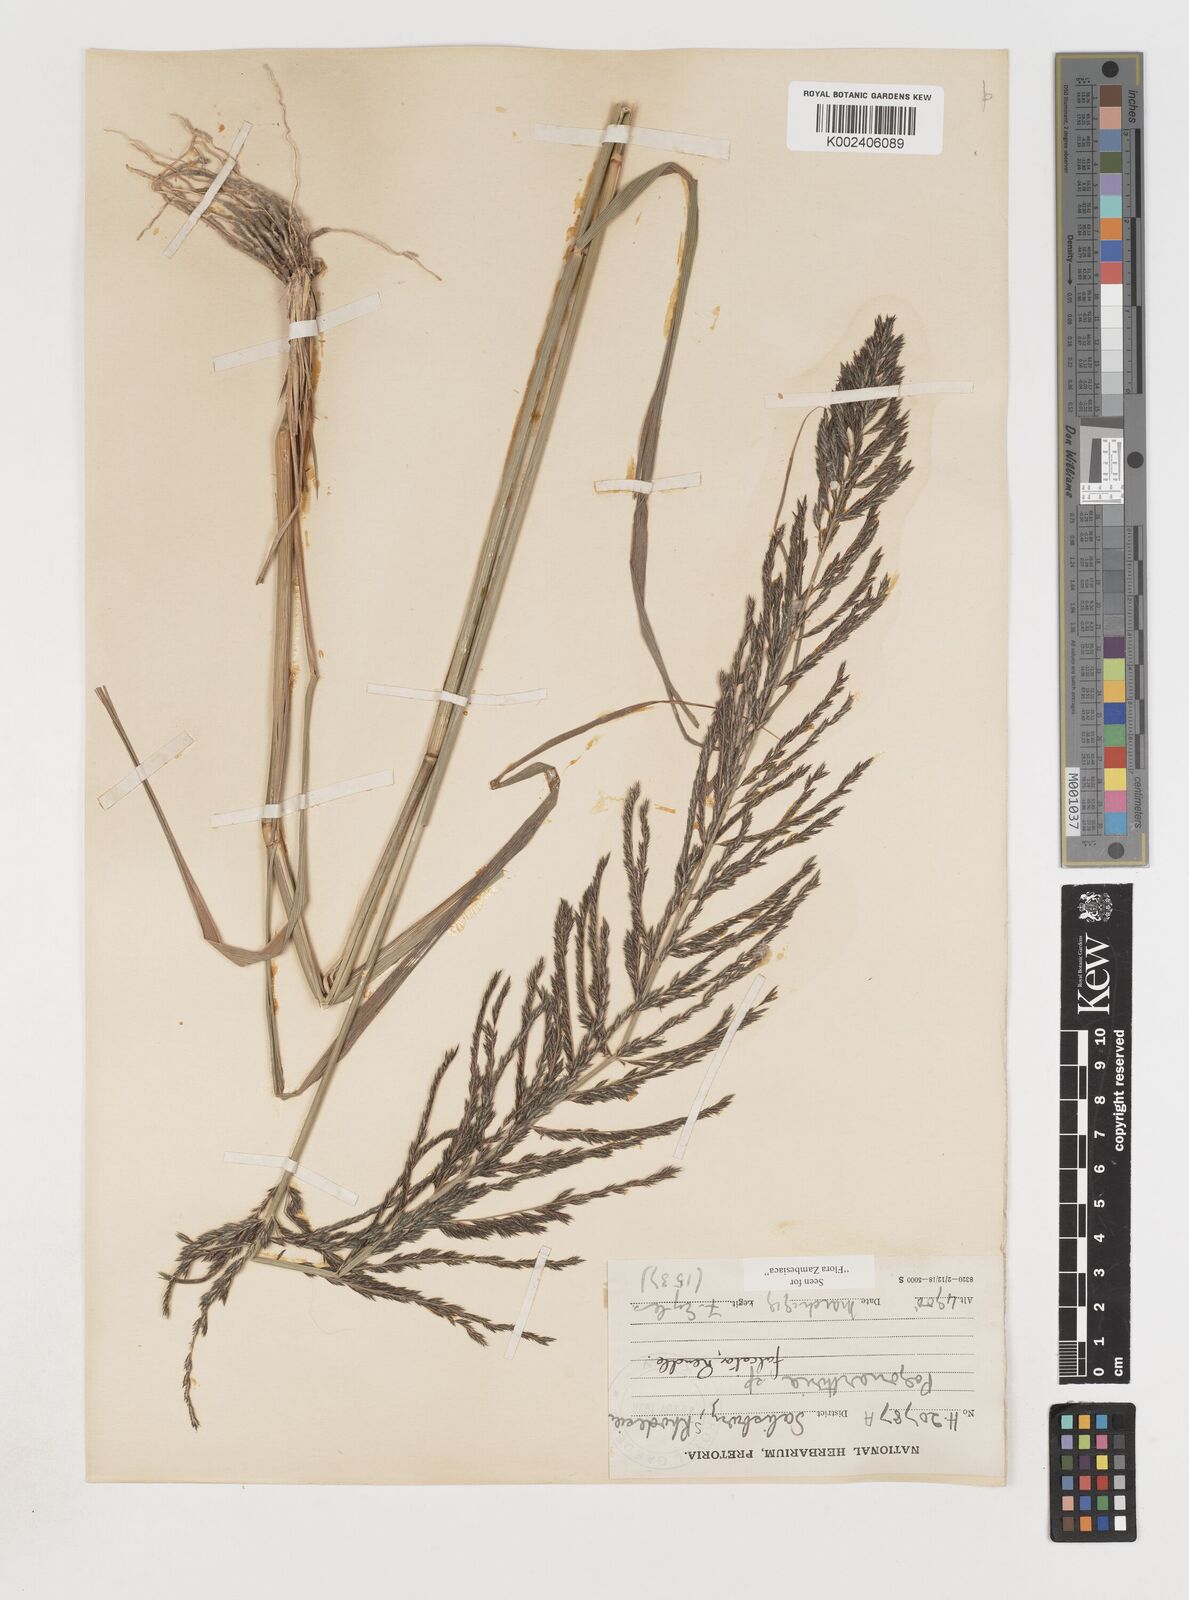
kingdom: Plantae
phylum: Tracheophyta
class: Liliopsida
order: Poales
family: Poaceae
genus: Pogonarthria
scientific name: Pogonarthria squarrosa
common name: Grass
